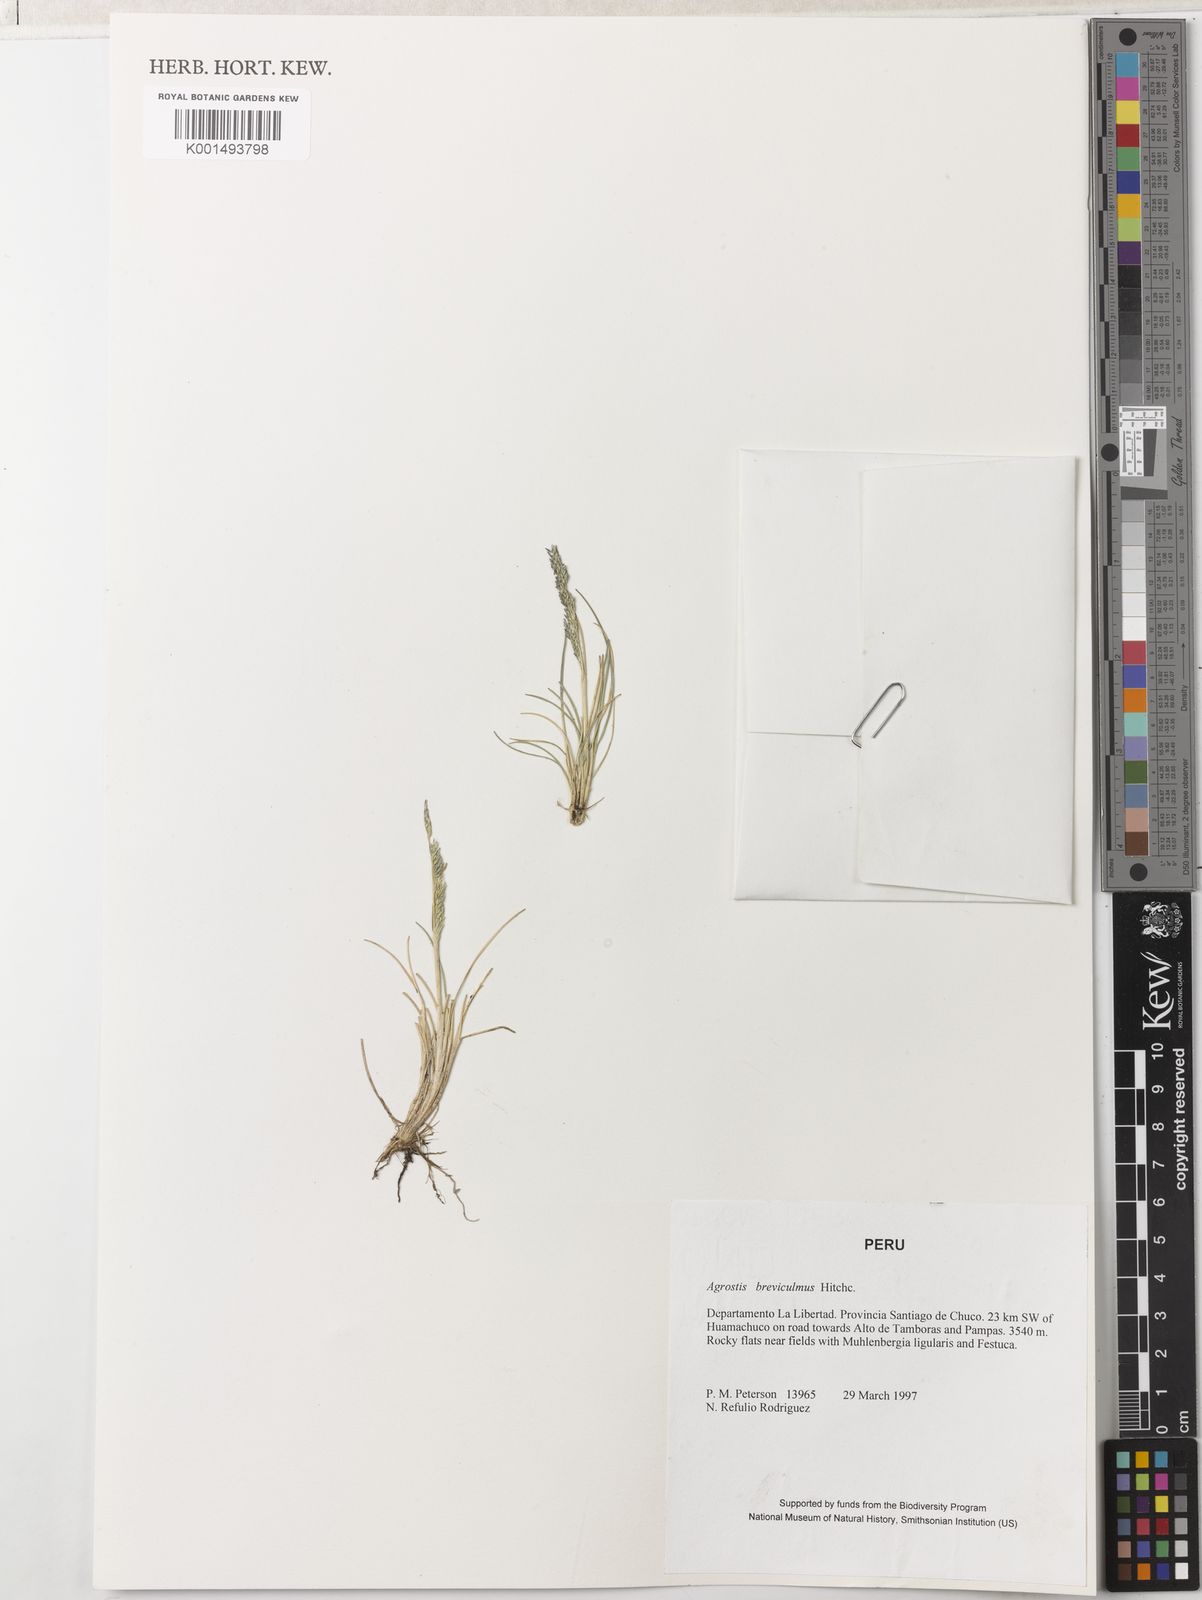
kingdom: Plantae
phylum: Tracheophyta
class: Liliopsida
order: Poales
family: Poaceae
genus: Agrostis
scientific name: Agrostis breviculmis
